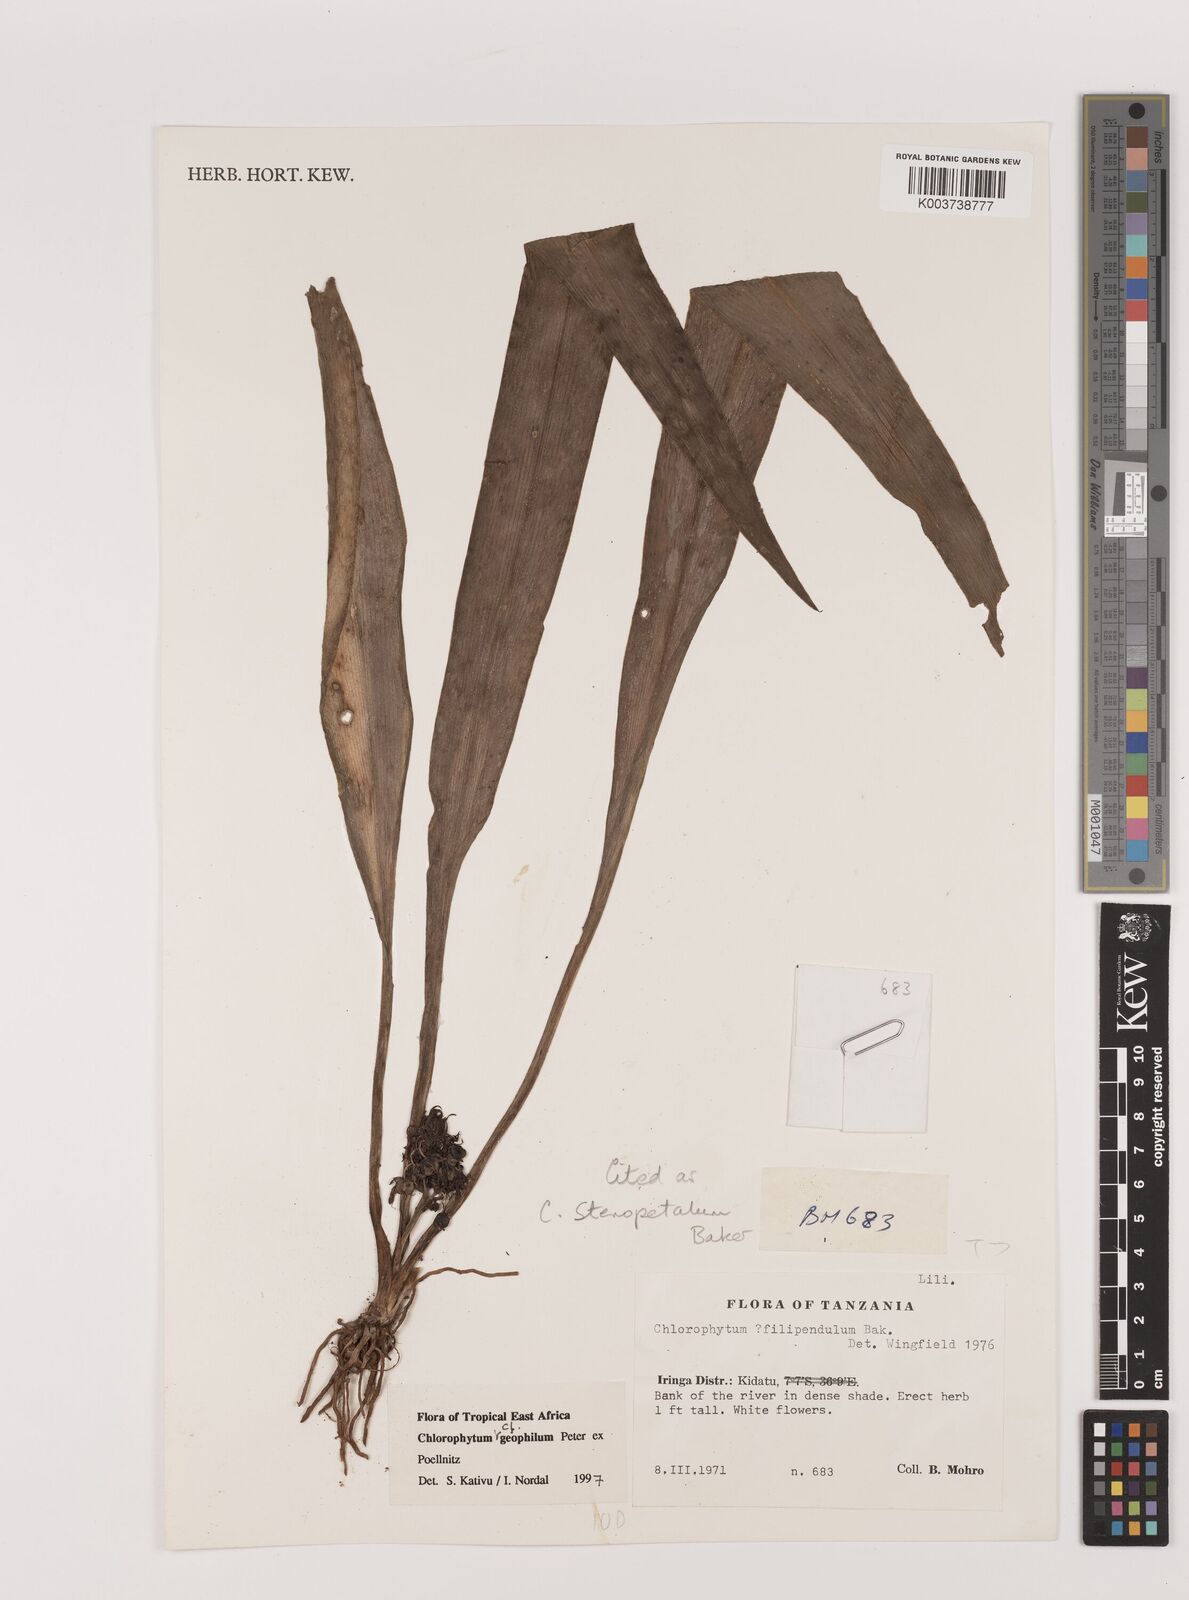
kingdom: Plantae
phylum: Tracheophyta
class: Liliopsida
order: Asparagales
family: Asparagaceae
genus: Chlorophytum
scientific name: Chlorophytum stenopetalum
